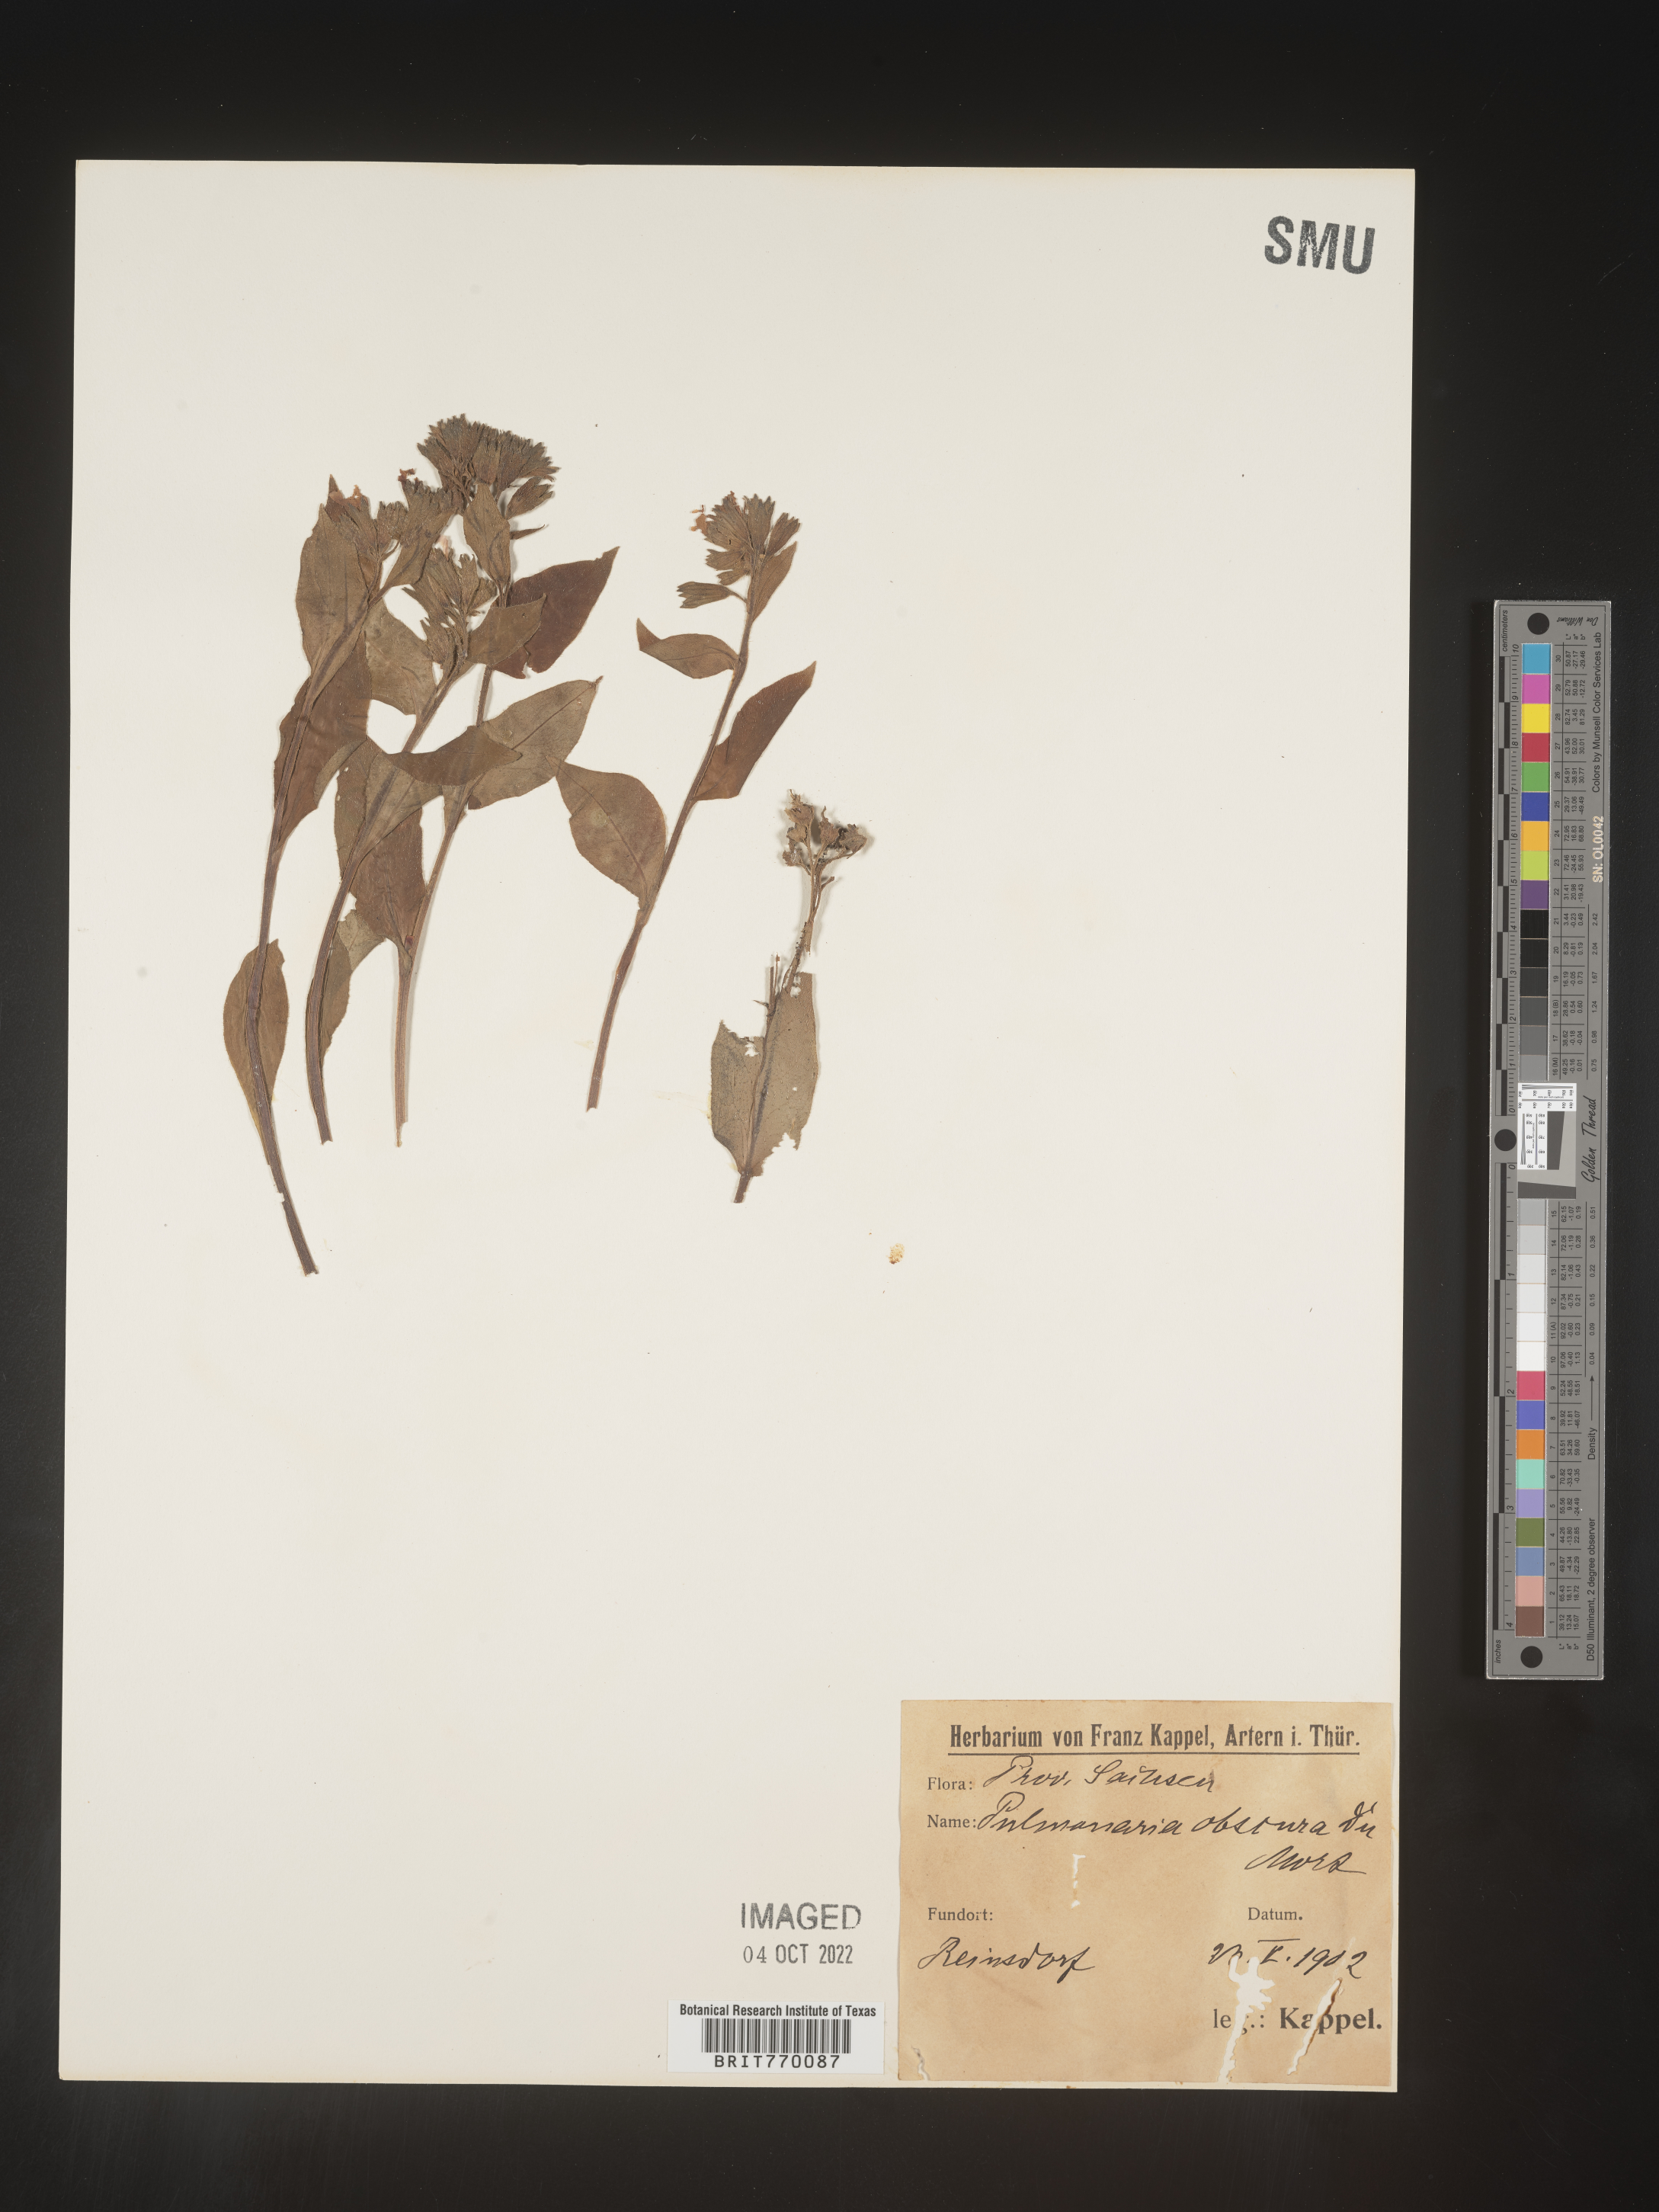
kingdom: Plantae
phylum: Tracheophyta
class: Magnoliopsida
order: Boraginales
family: Boraginaceae
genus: Pulmonaria
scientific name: Pulmonaria
